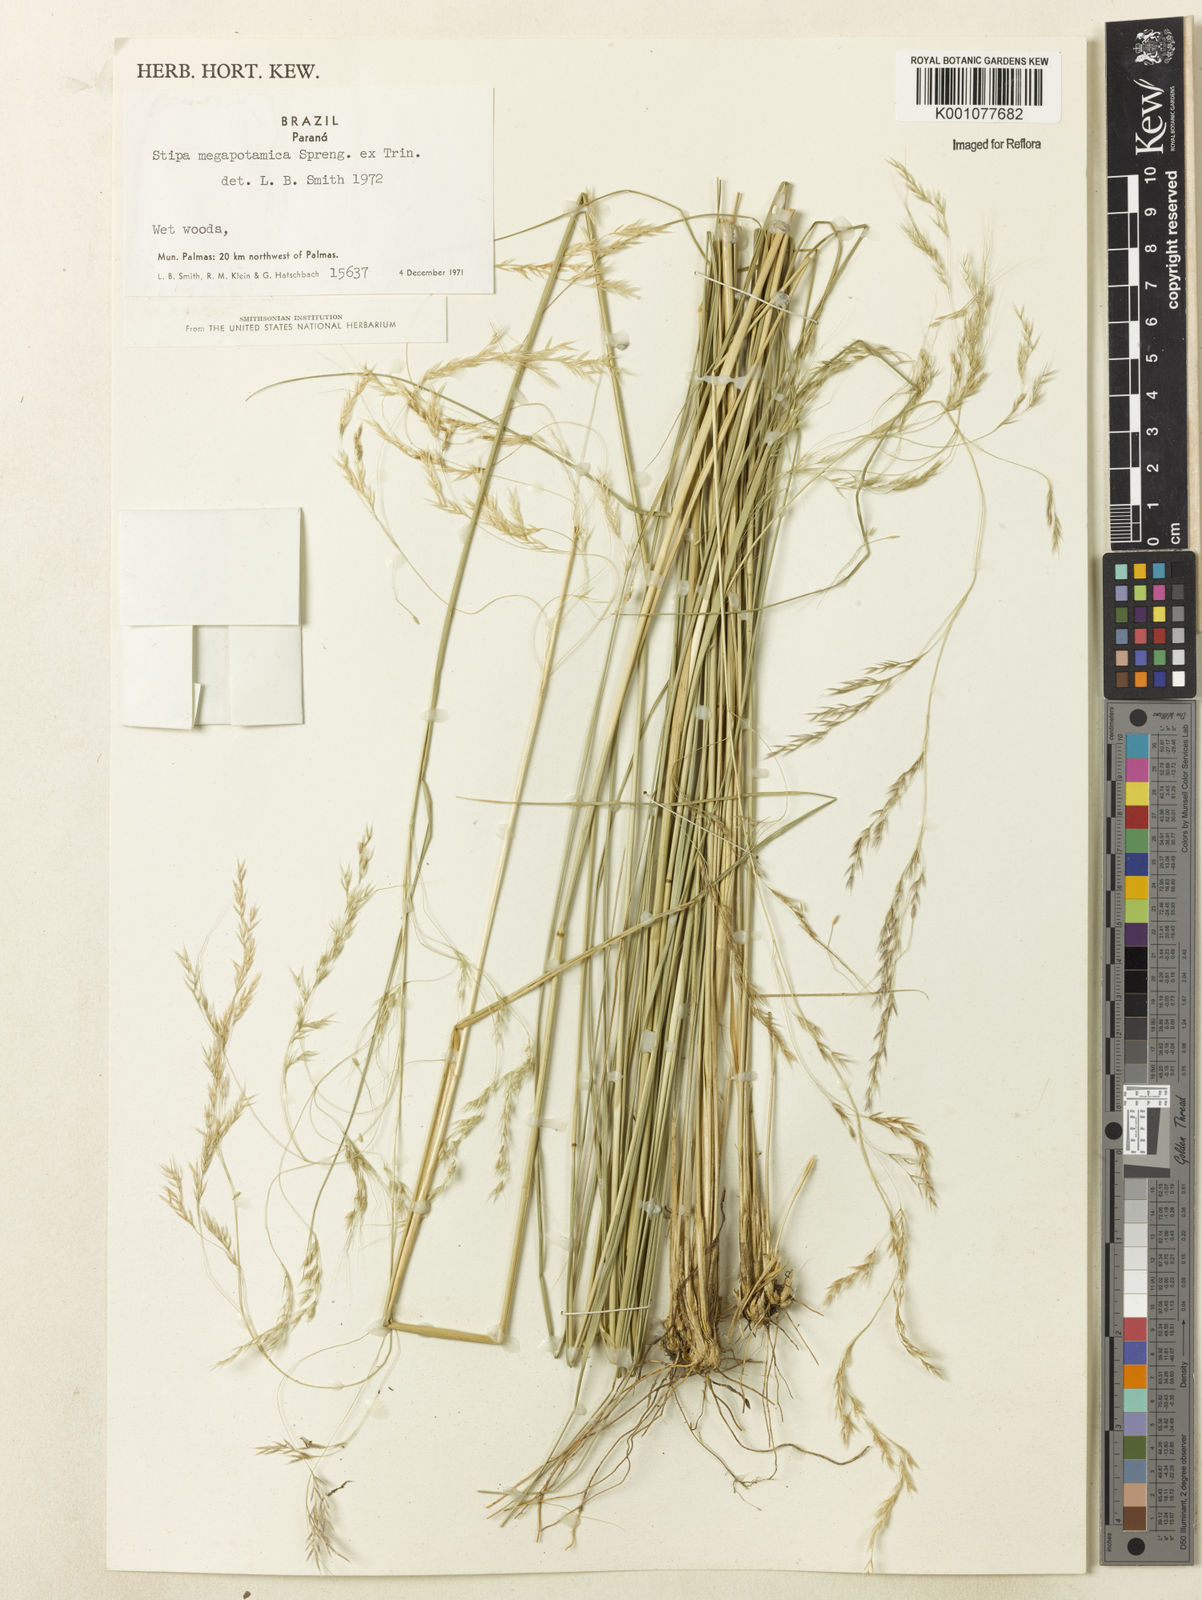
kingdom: Plantae
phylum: Tracheophyta
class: Liliopsida
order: Poales
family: Poaceae
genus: Jarava
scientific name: Jarava filifolia
